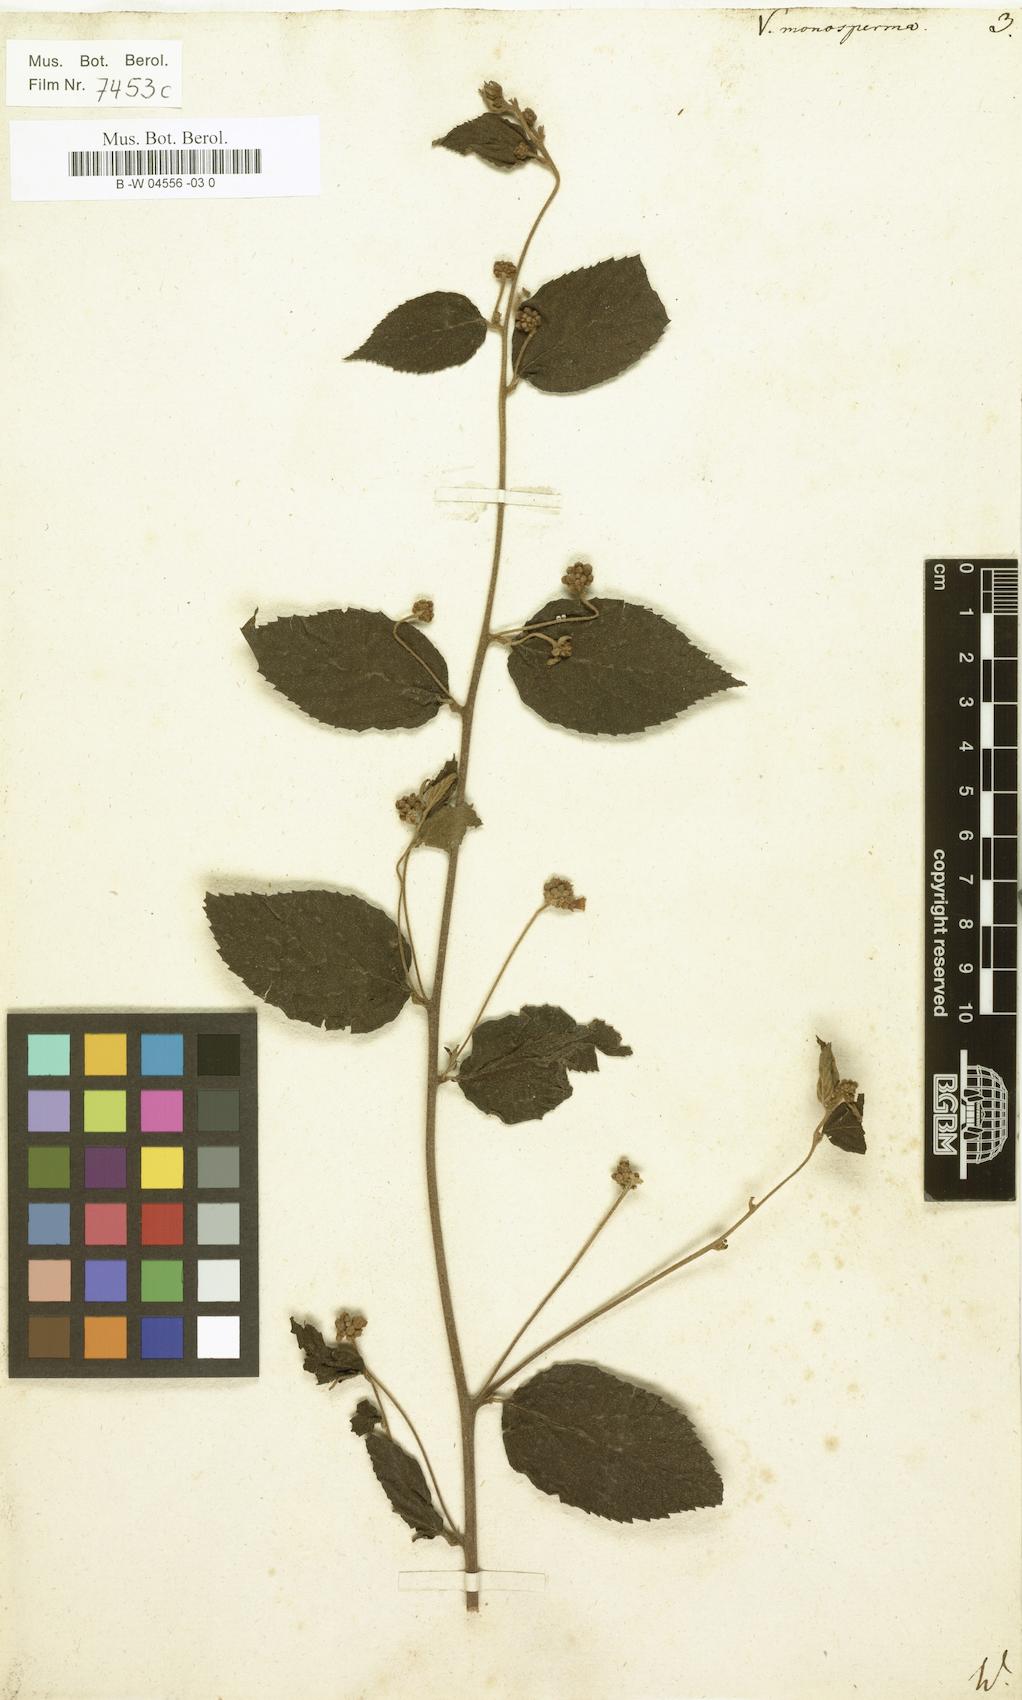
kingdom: Plantae
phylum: Tracheophyta
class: Magnoliopsida
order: Boraginales
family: Cordiaceae
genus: Varronia
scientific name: Varronia polycephala
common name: Black-sage
